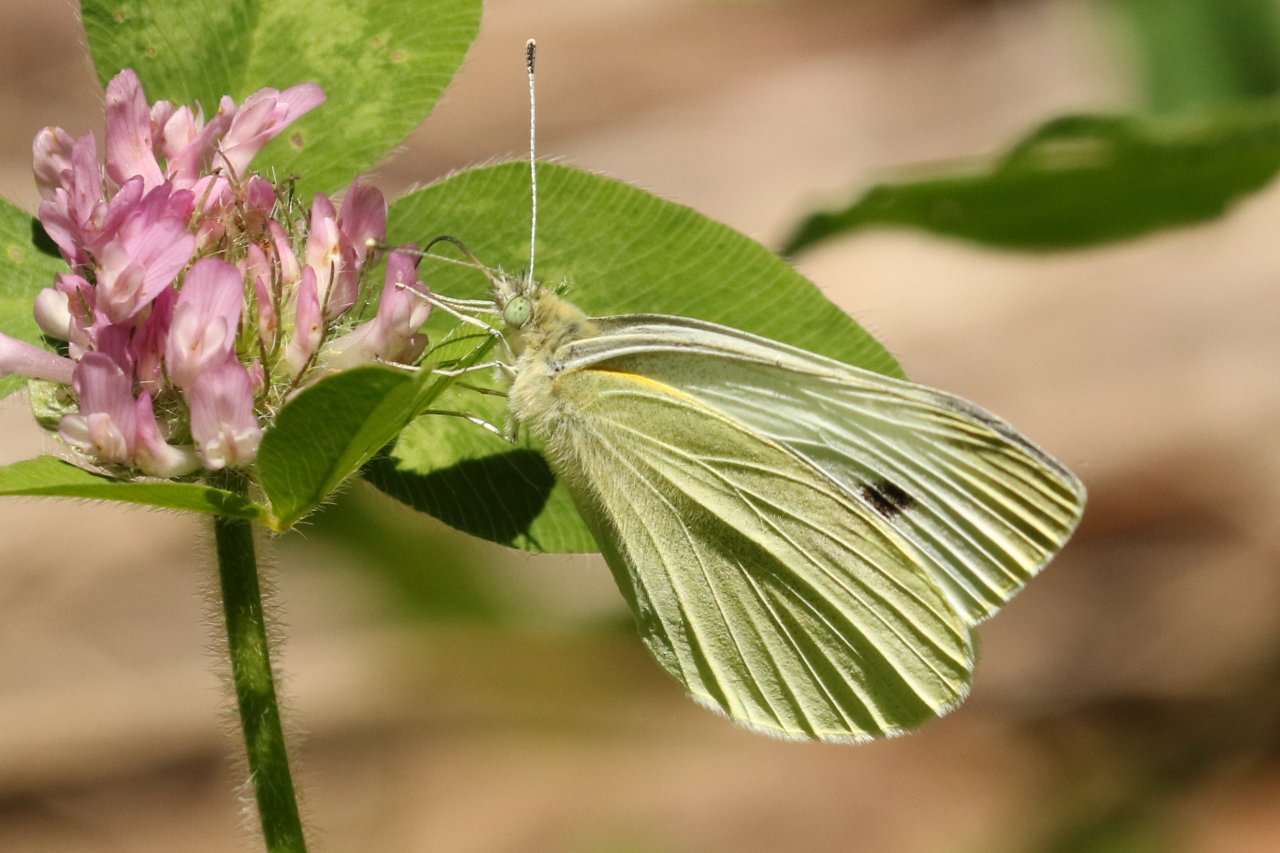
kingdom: Animalia
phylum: Arthropoda
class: Insecta
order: Lepidoptera
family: Pieridae
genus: Pieris
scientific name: Pieris rapae
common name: Cabbage White
